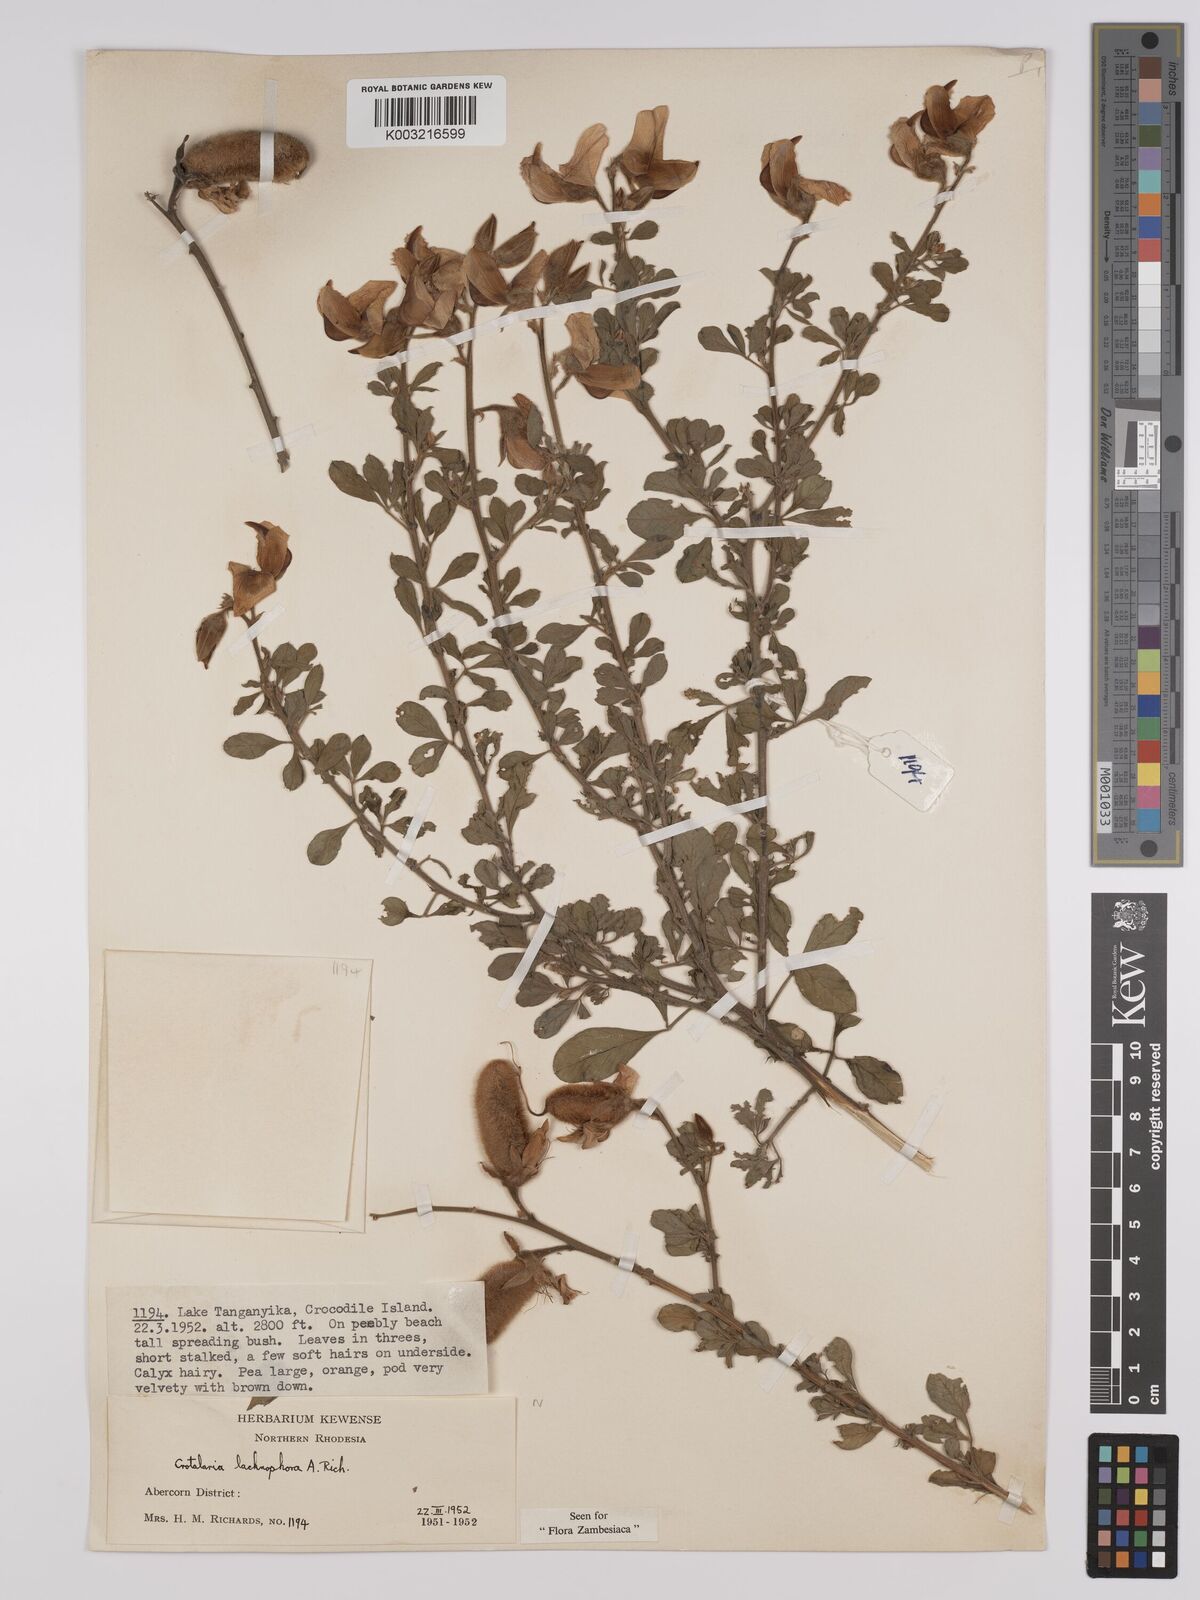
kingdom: Plantae
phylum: Tracheophyta
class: Magnoliopsida
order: Fabales
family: Fabaceae
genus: Crotalaria
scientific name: Crotalaria lachnophora
